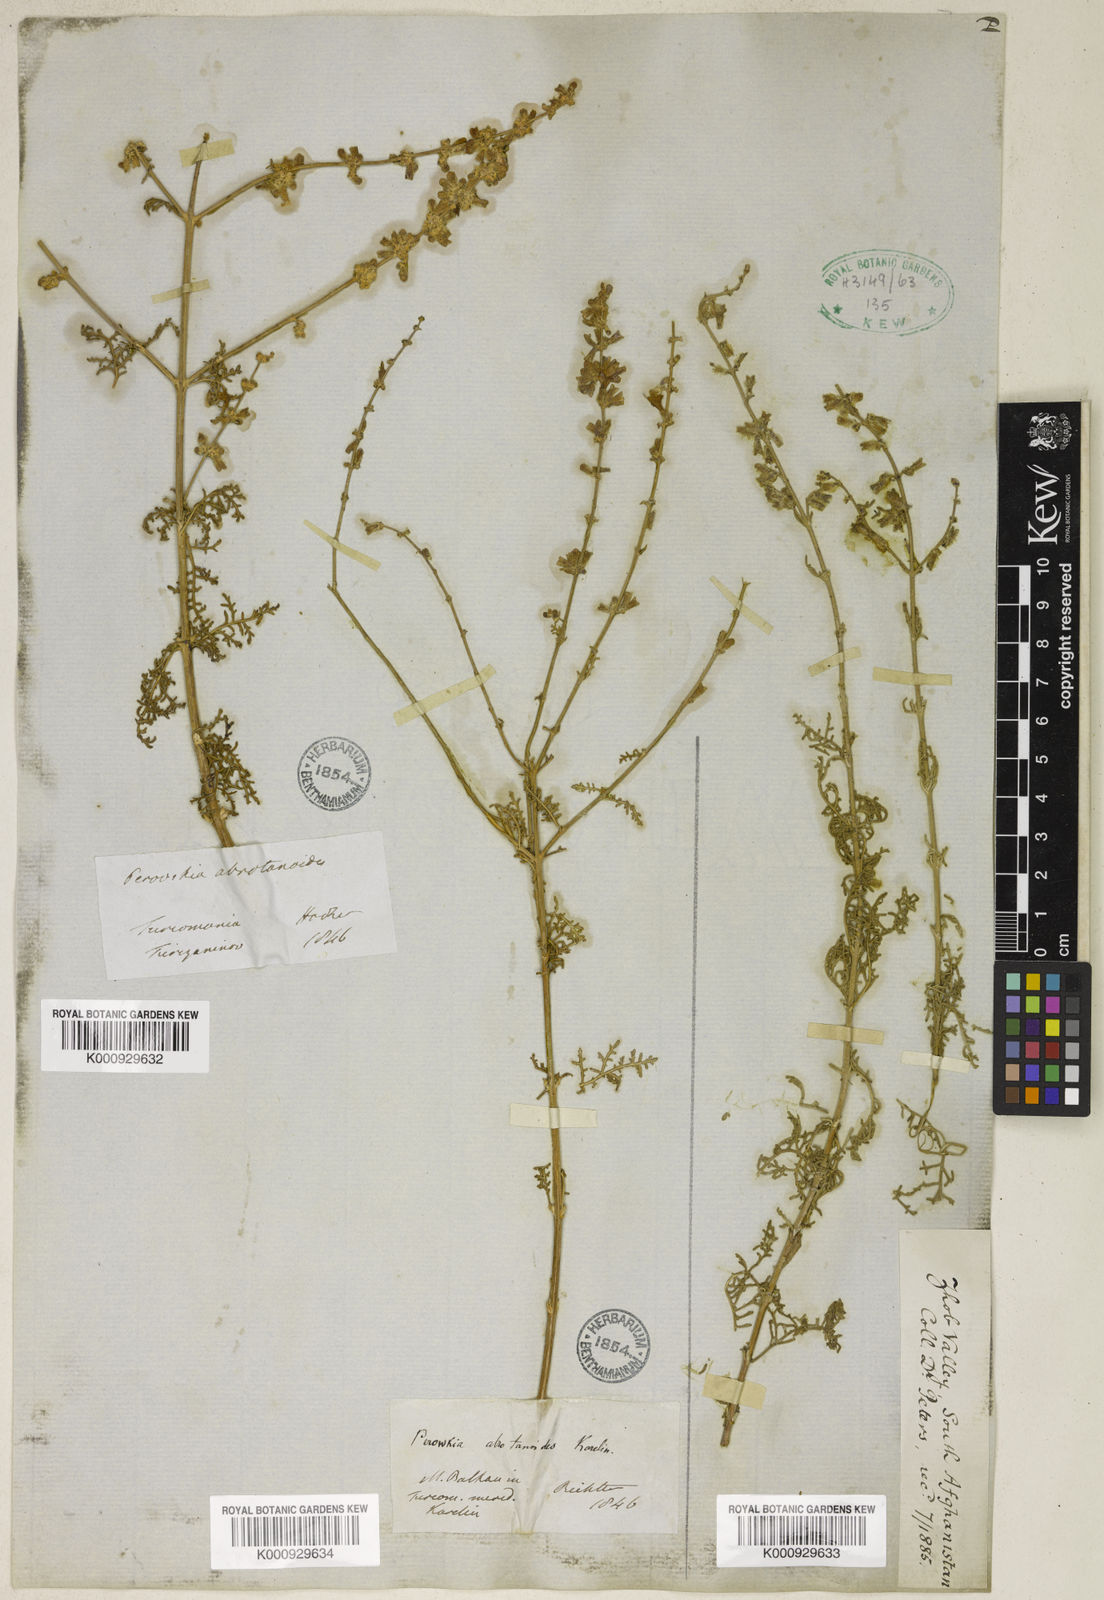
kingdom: Plantae
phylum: Tracheophyta
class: Magnoliopsida
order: Lamiales
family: Lamiaceae
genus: Salvia
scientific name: Salvia abrotanoides
